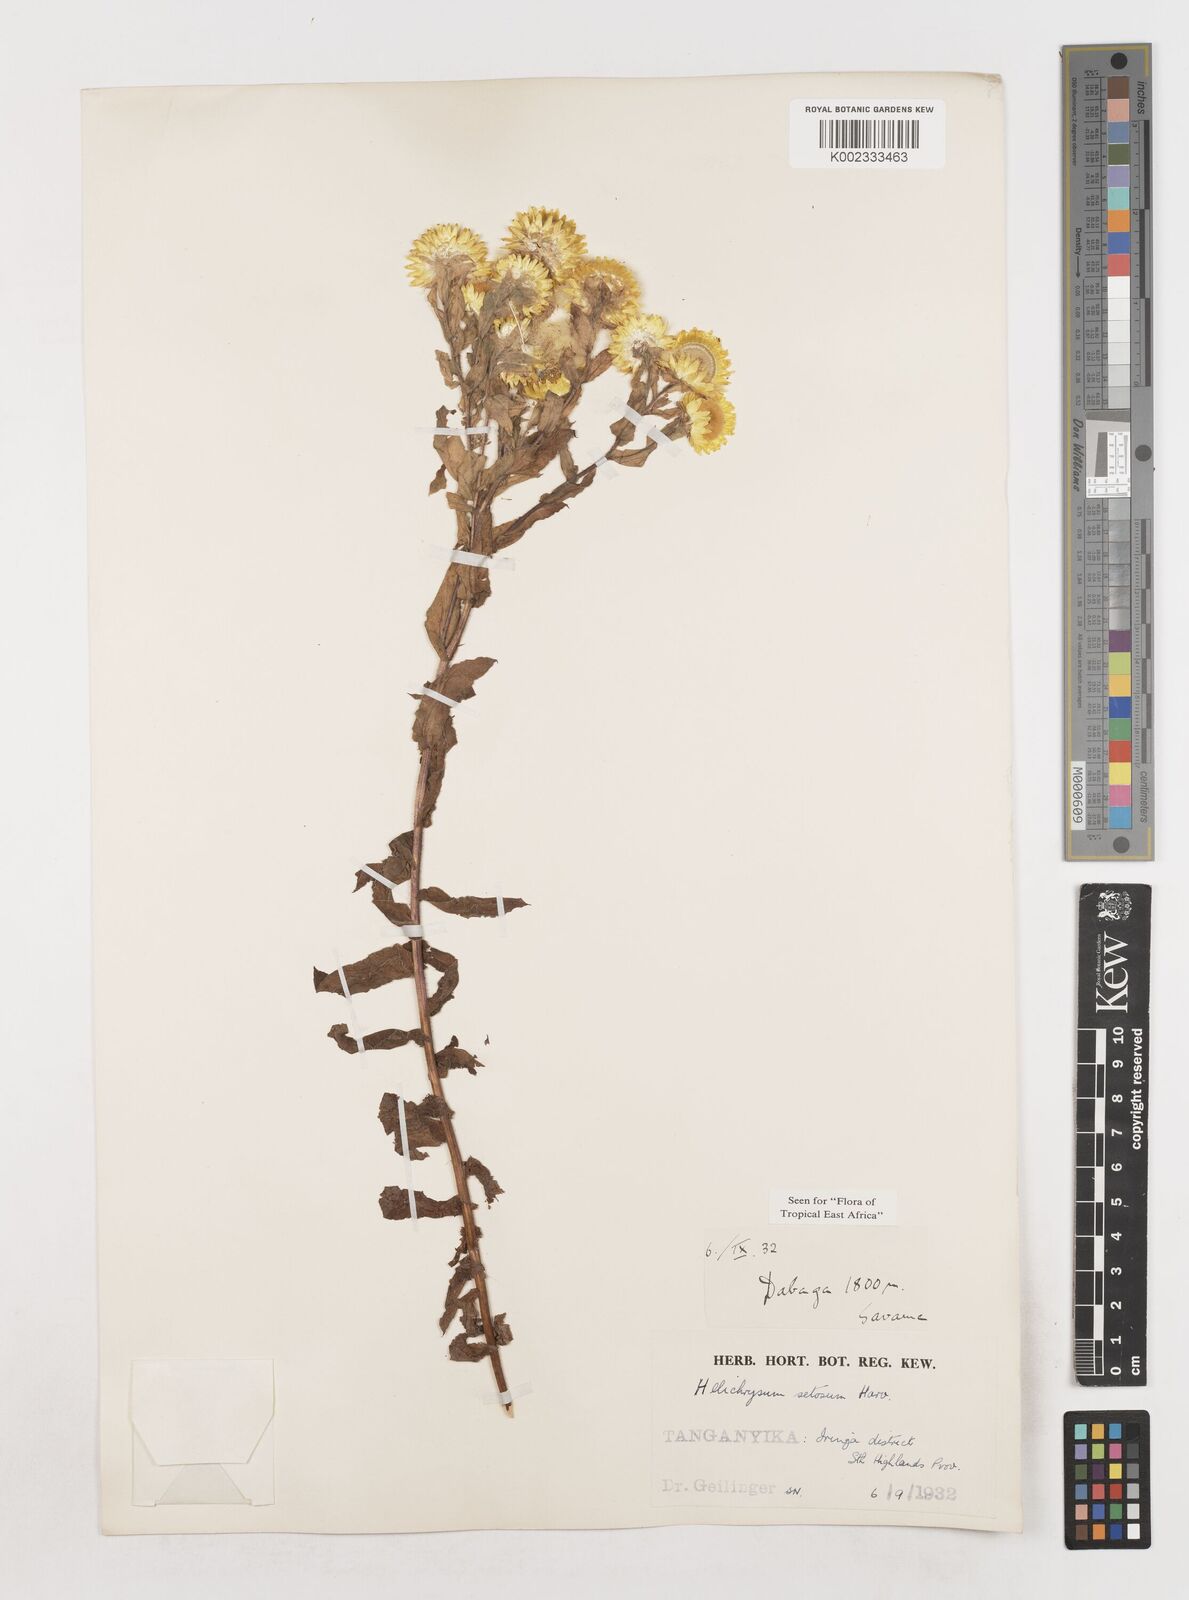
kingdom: Plantae
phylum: Tracheophyta
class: Magnoliopsida
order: Asterales
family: Asteraceae
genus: Helichrysum
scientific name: Helichrysum setosum
